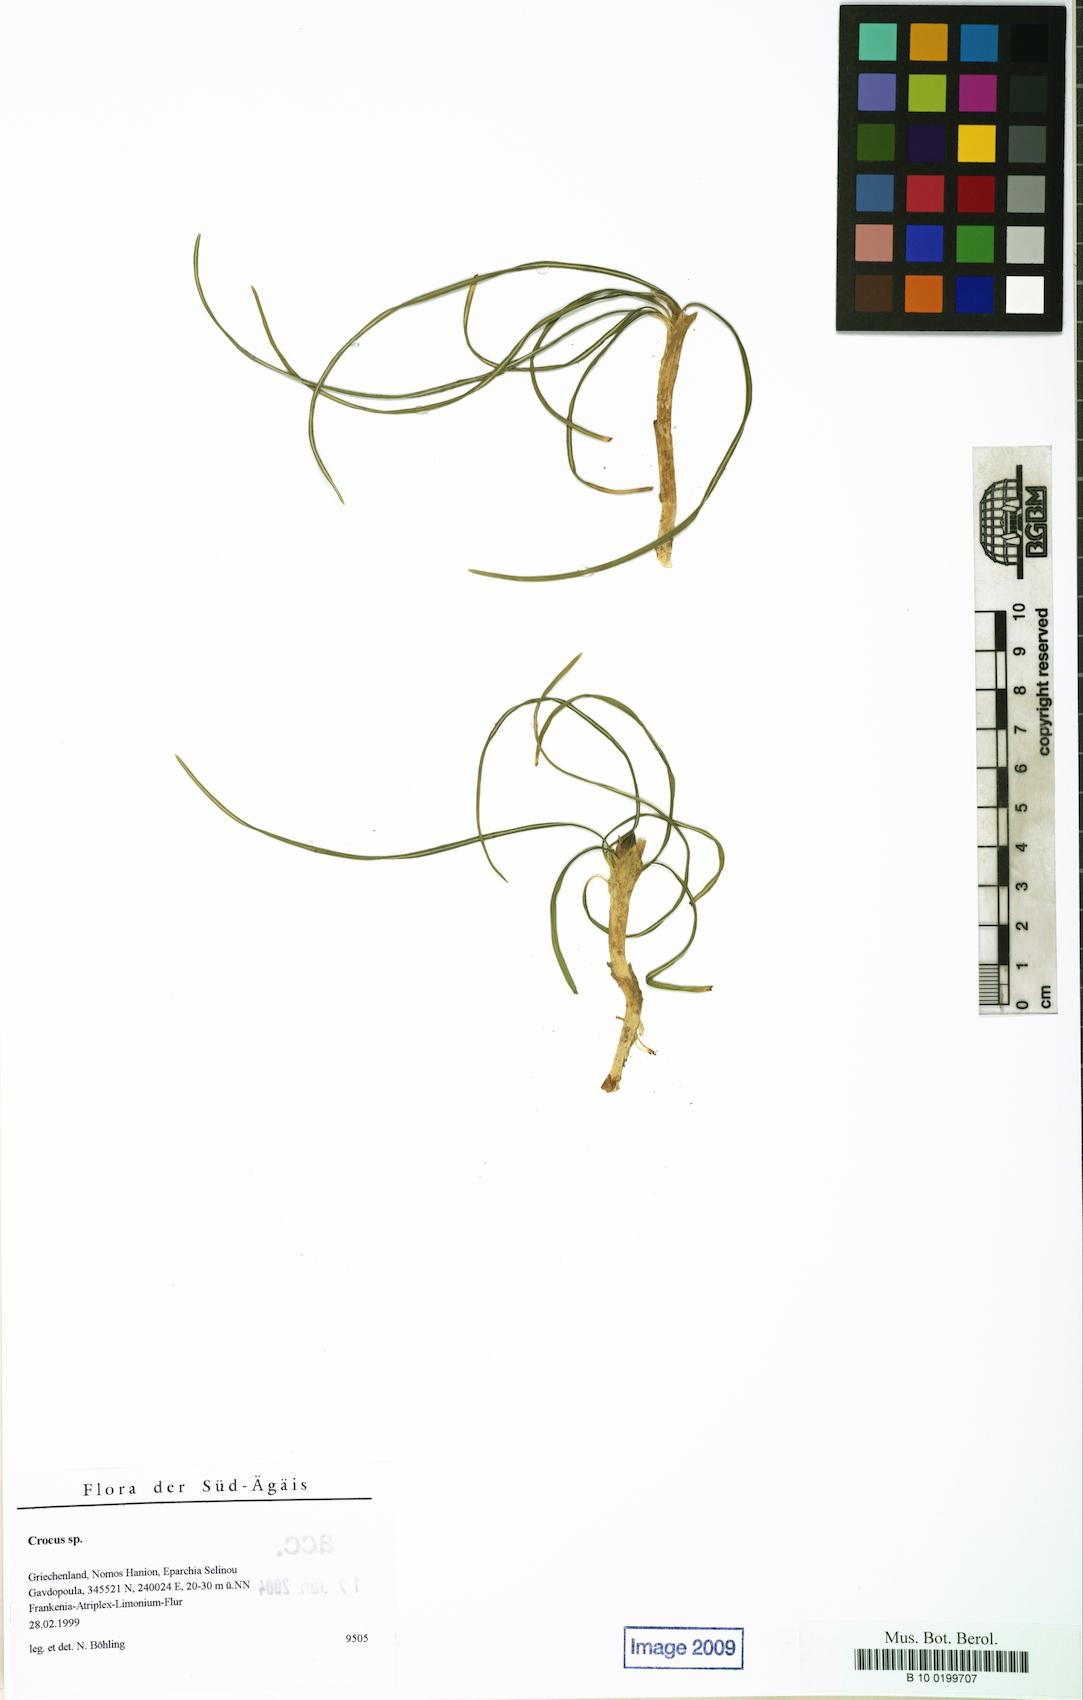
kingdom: Plantae
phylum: Tracheophyta
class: Liliopsida
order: Asparagales
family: Iridaceae
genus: Crocus
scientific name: Crocus
